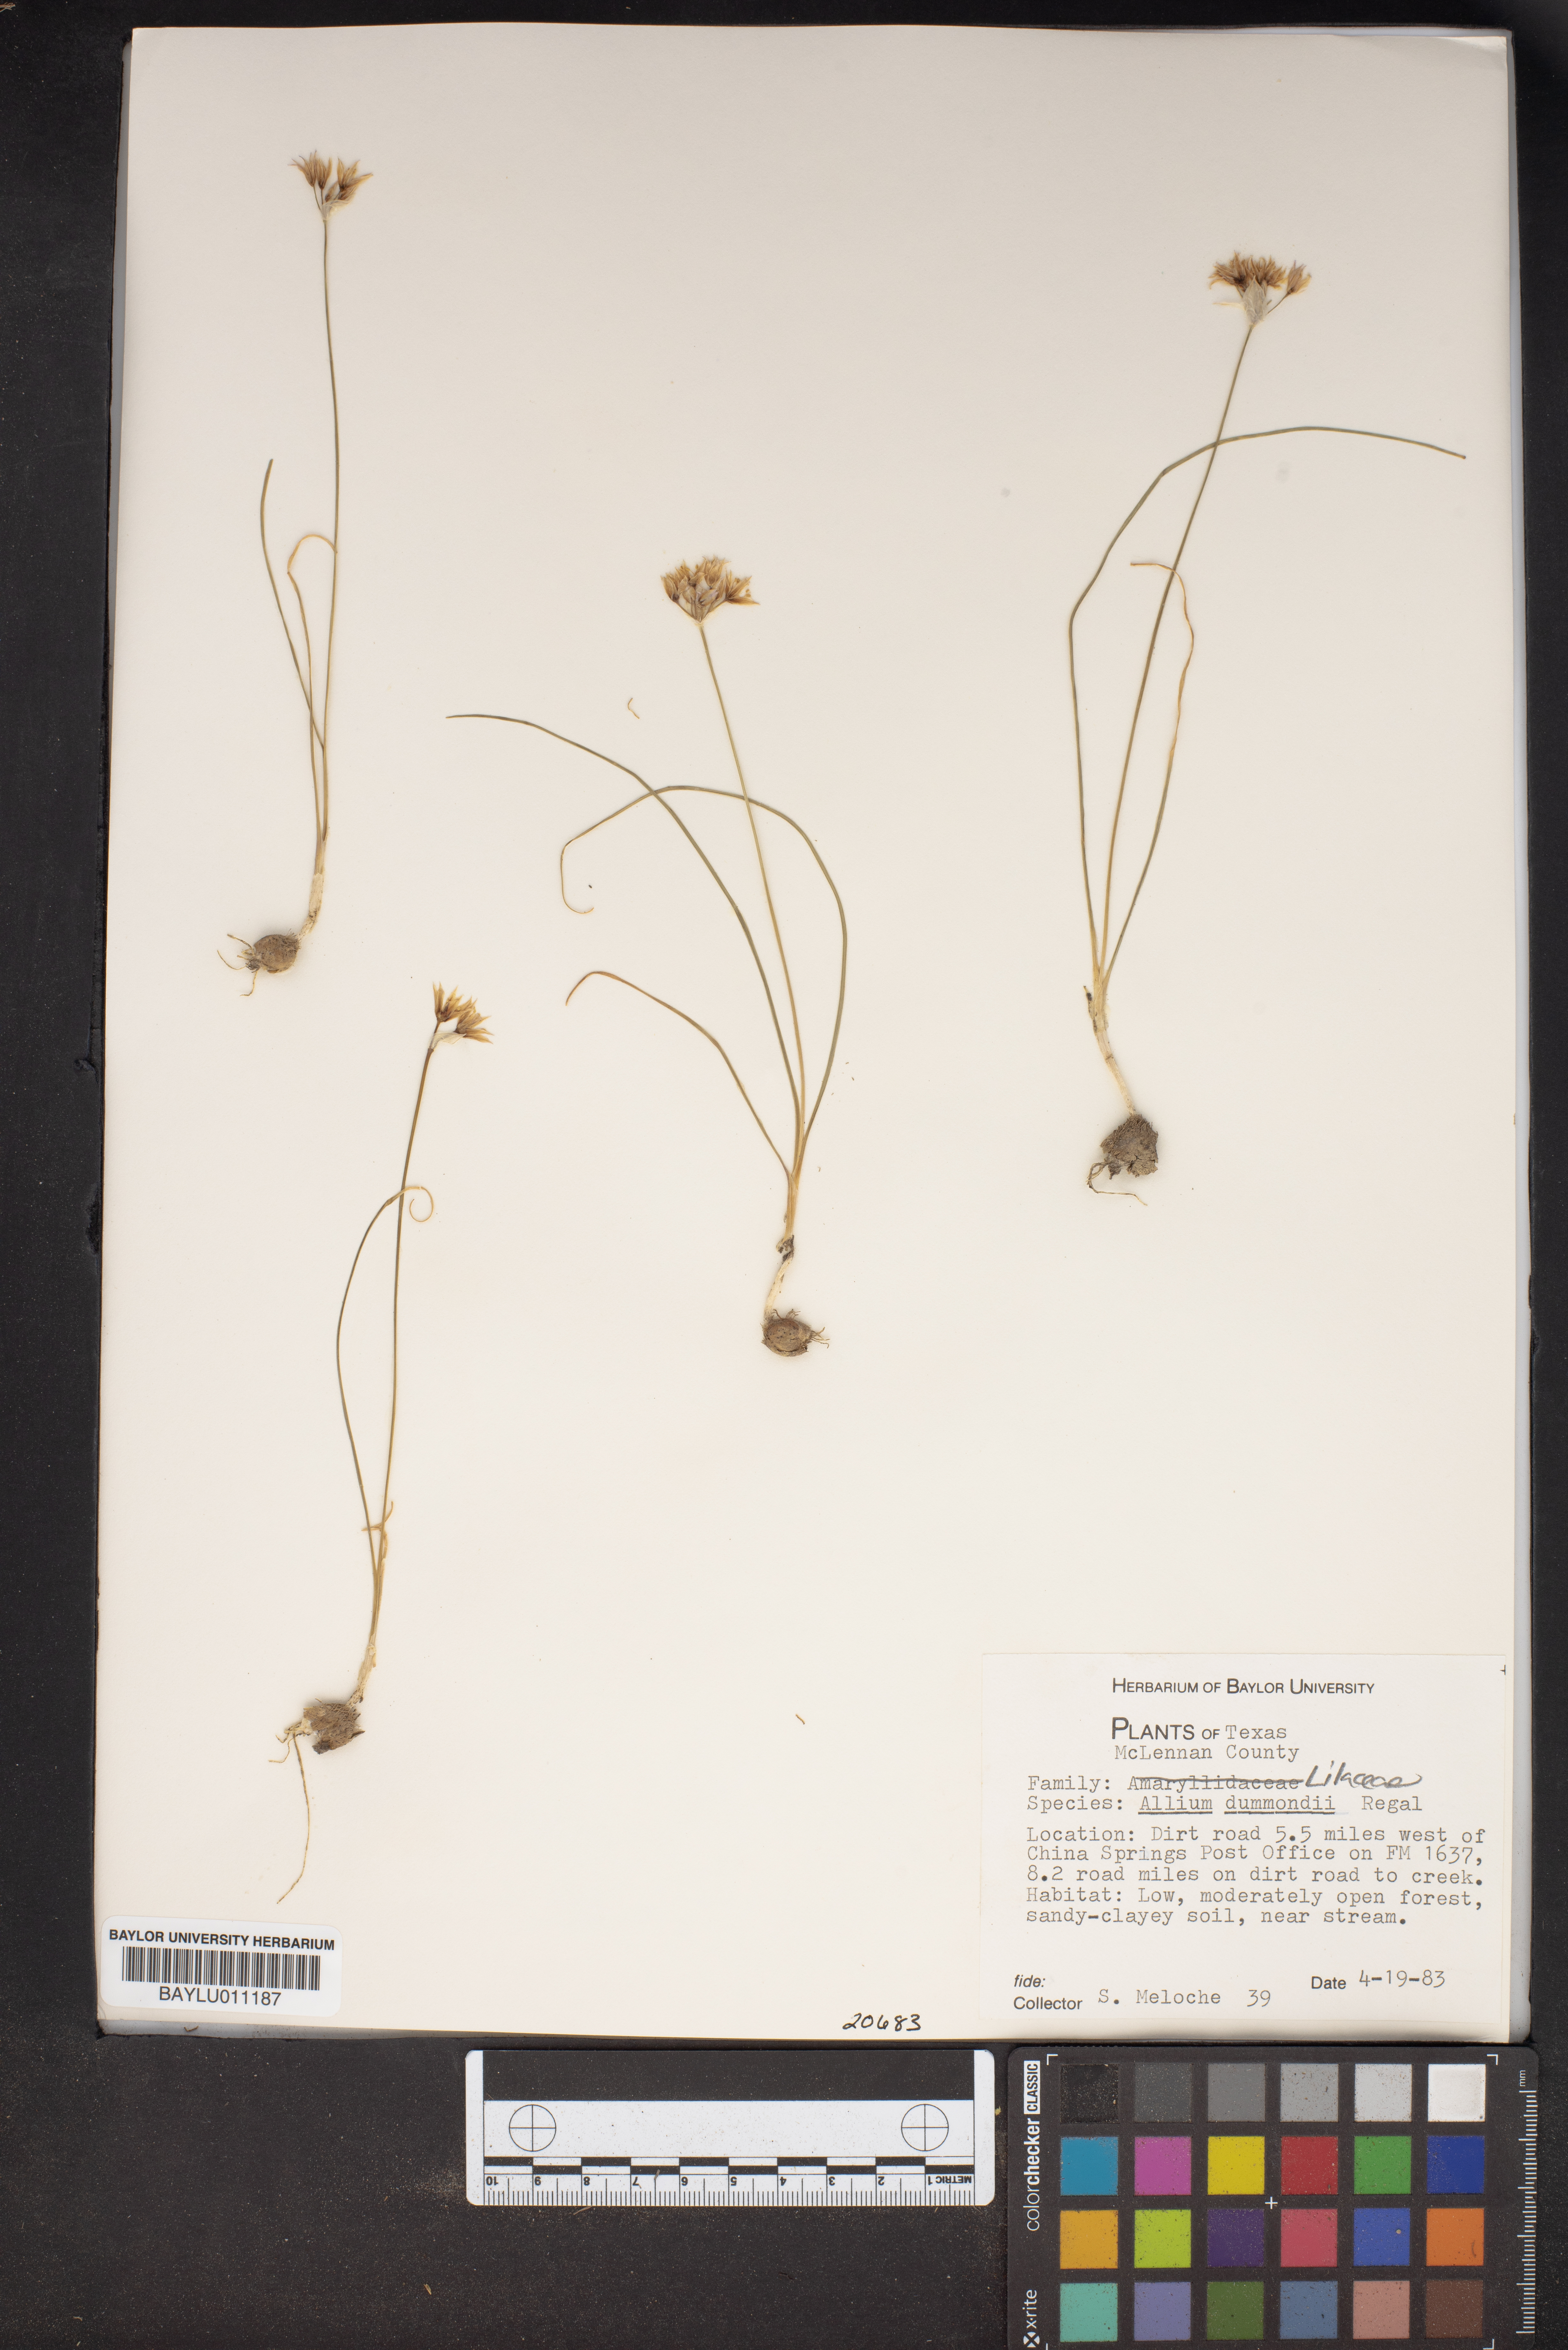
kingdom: Plantae
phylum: Tracheophyta
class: Liliopsida
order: Asparagales
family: Amaryllidaceae
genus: Allium
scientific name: Allium drummondii
